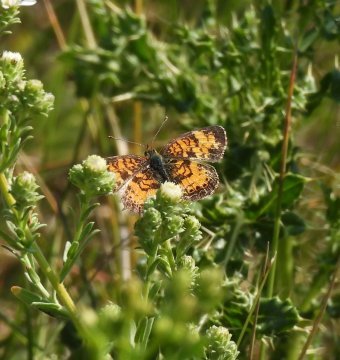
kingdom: Animalia
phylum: Arthropoda
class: Insecta
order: Lepidoptera
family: Nymphalidae
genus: Phyciodes
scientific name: Phyciodes tharos
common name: Northern Crescent
